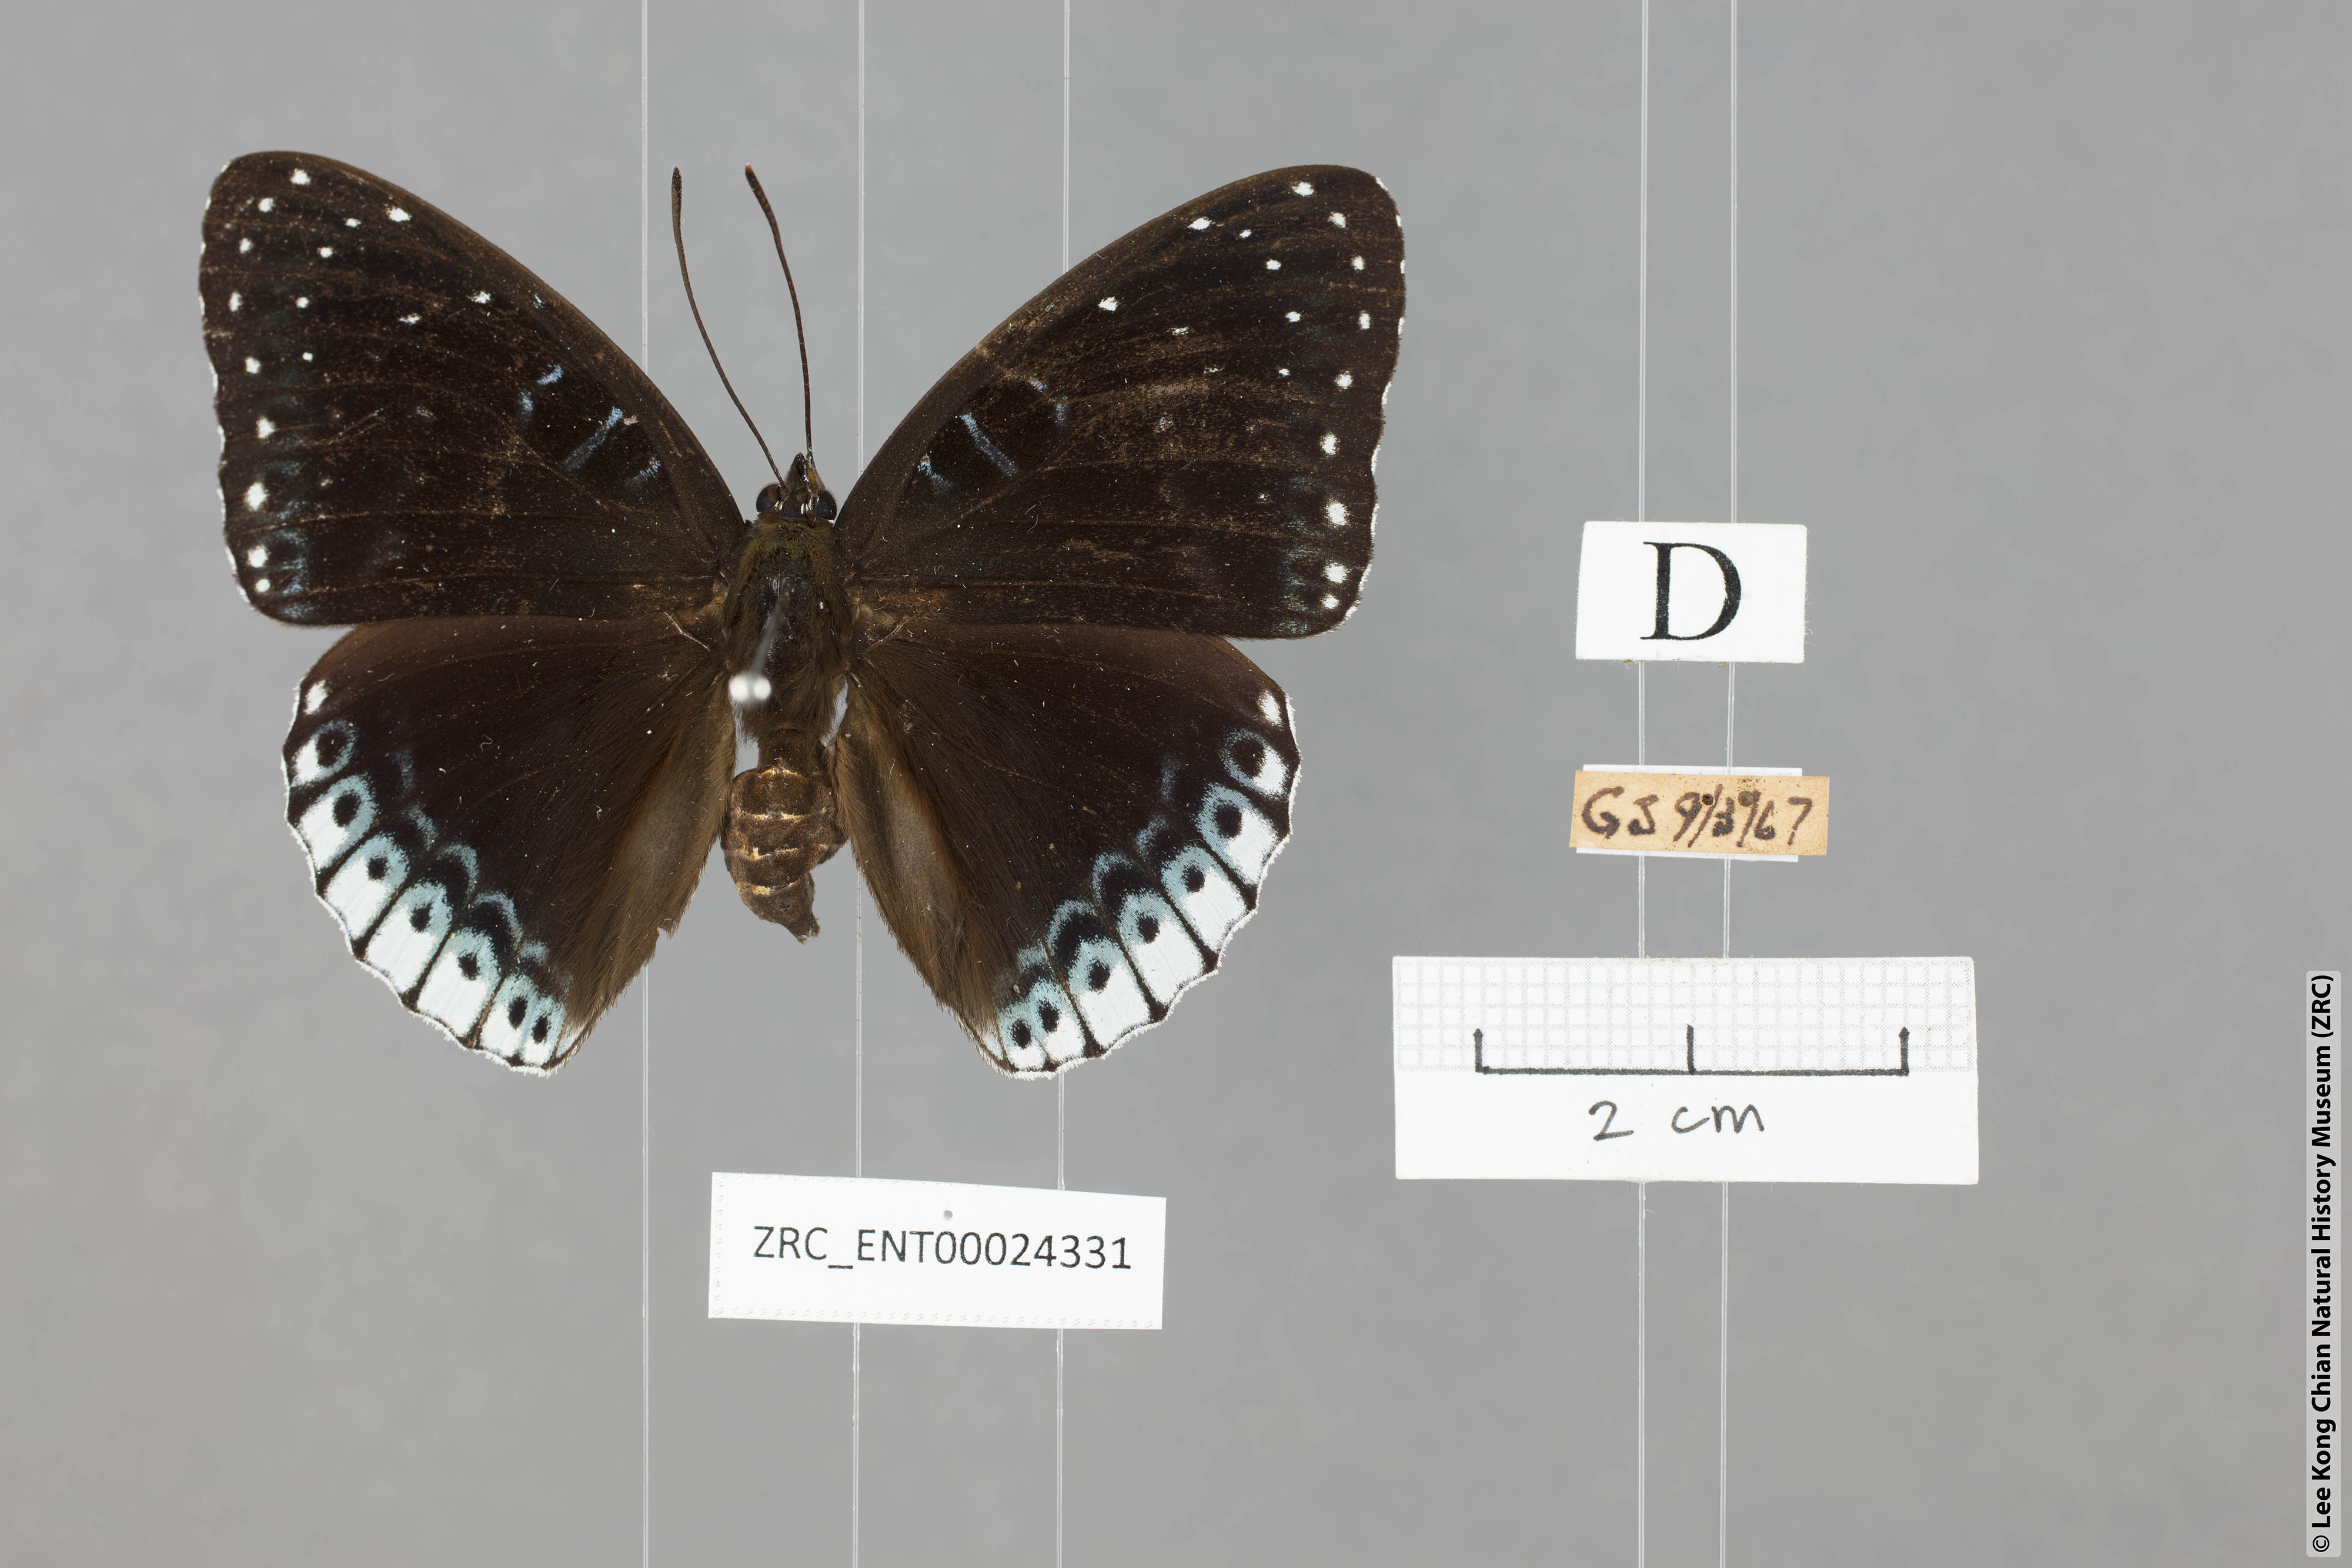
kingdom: Animalia
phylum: Arthropoda
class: Insecta
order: Lepidoptera
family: Nymphalidae
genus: Stibochiona
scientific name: Stibochiona nicea
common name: Popinjay
